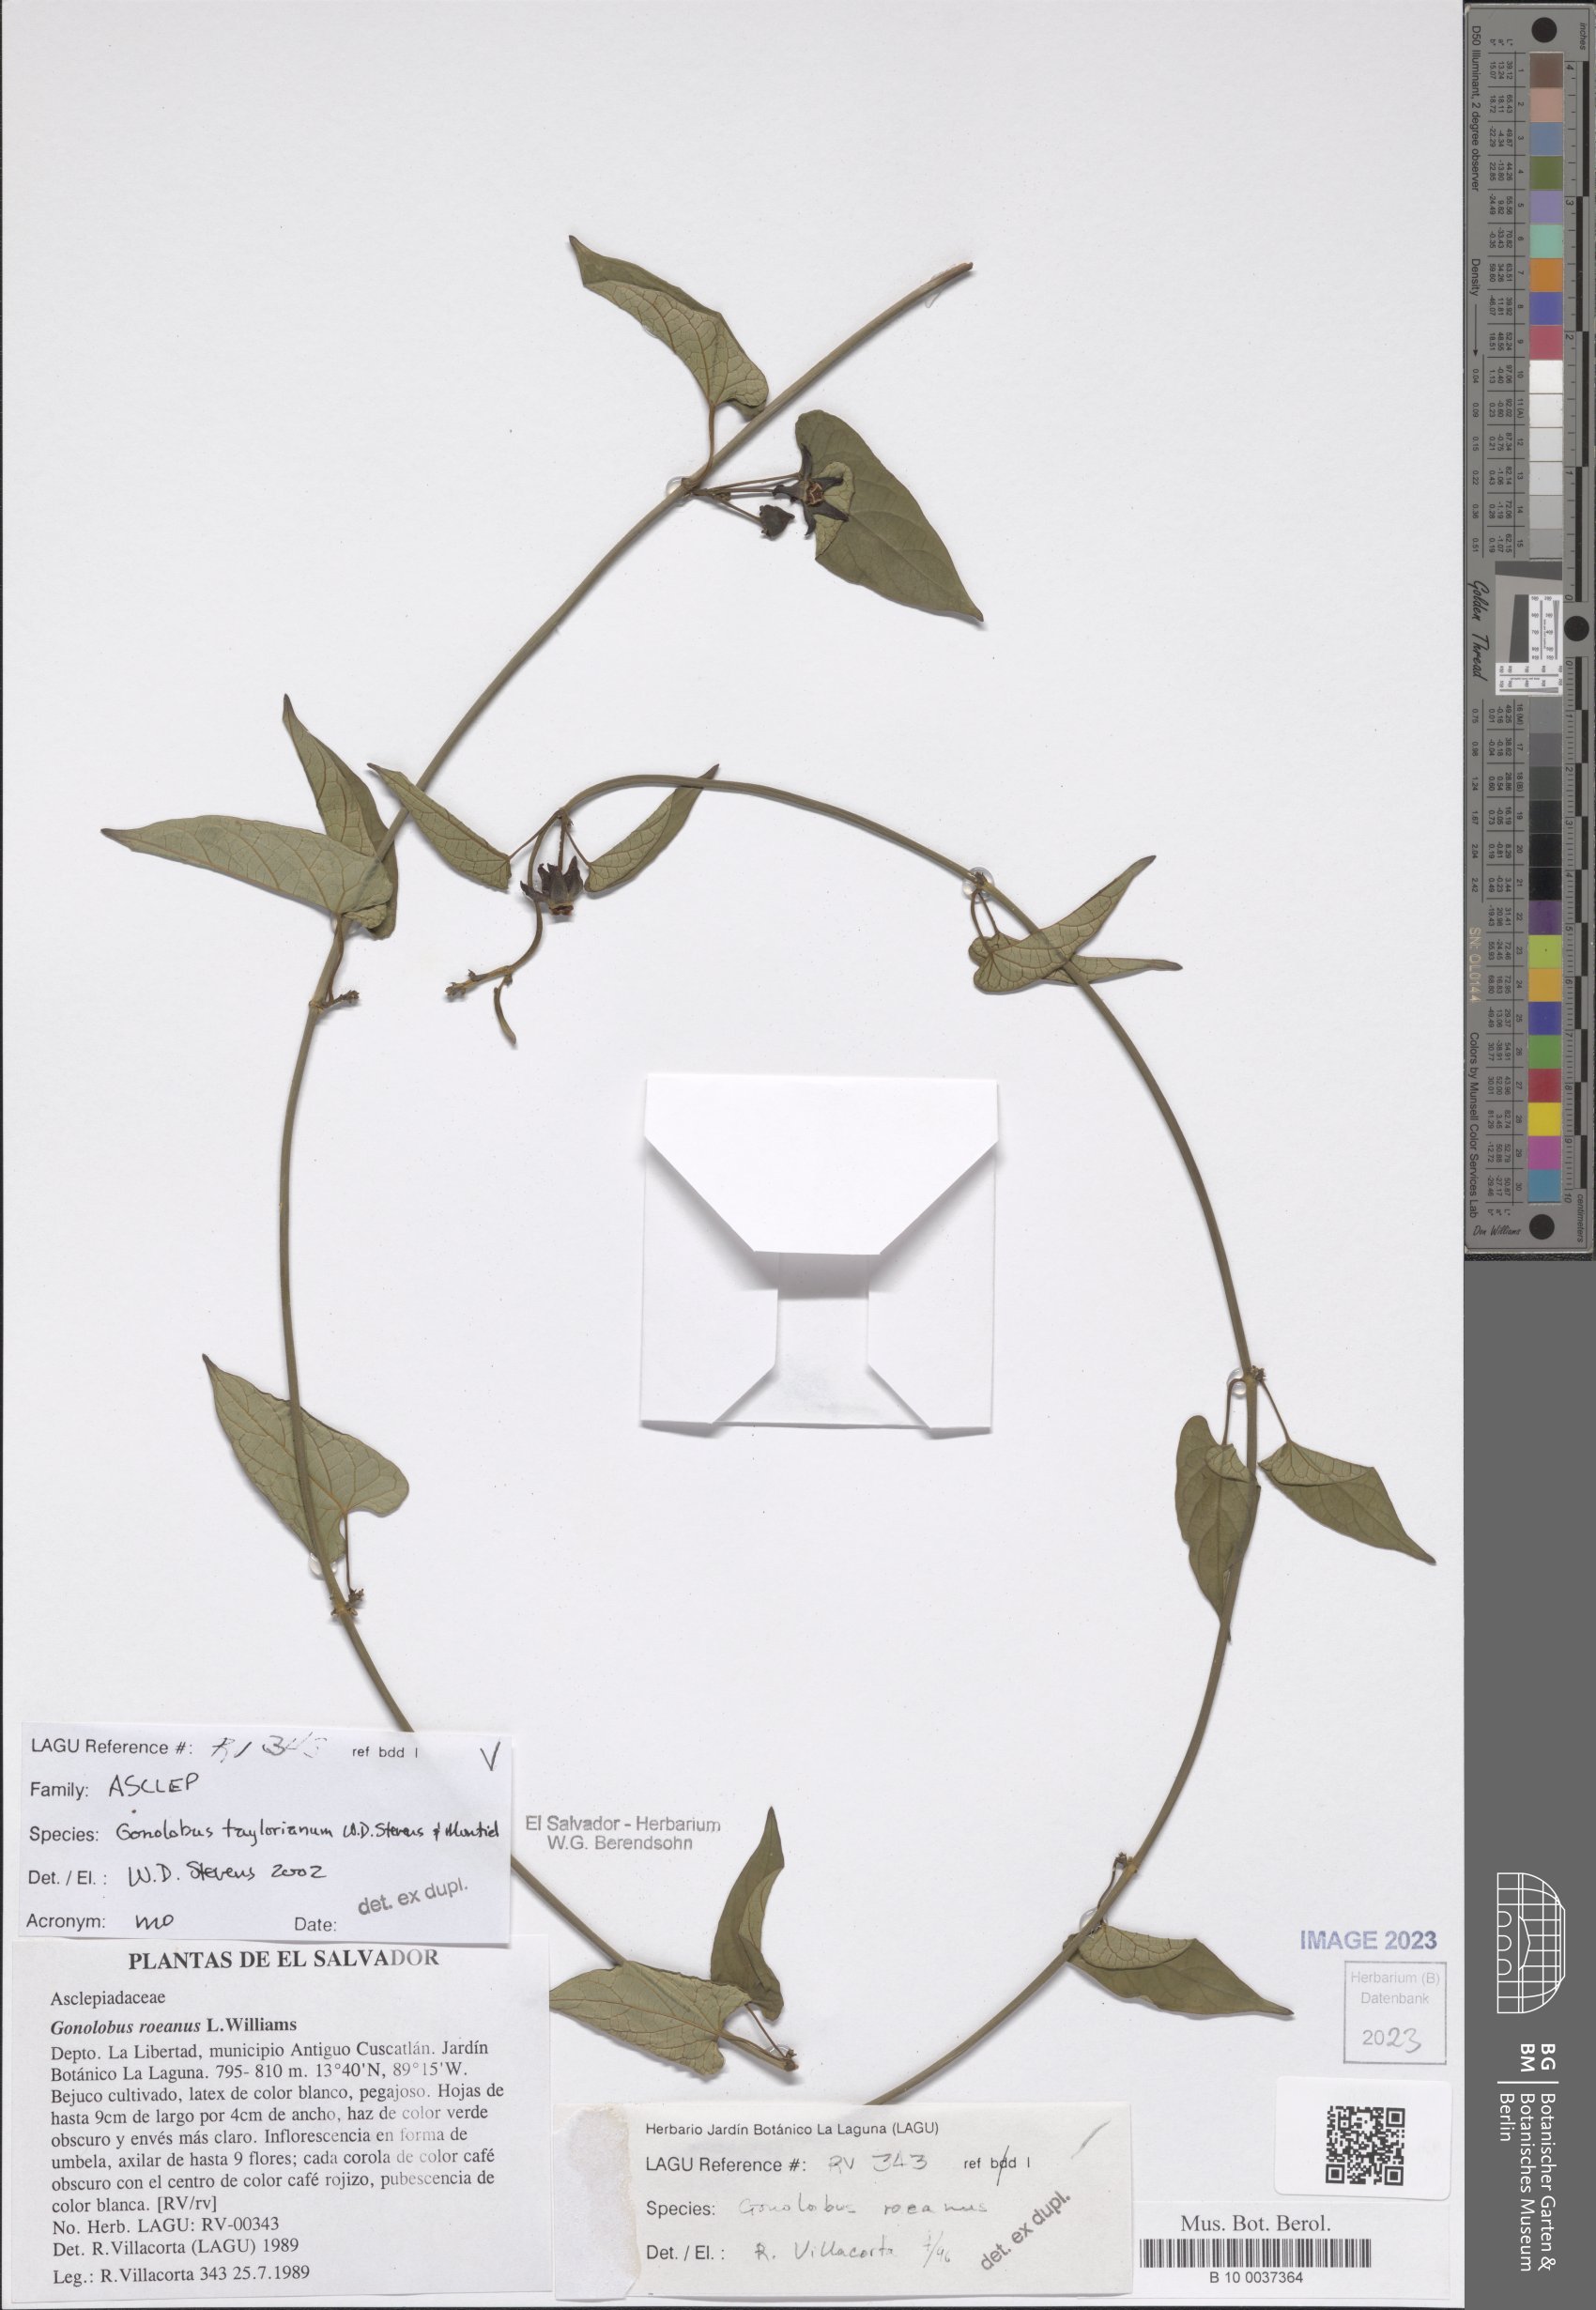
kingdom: Plantae
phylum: Tracheophyta
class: Magnoliopsida
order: Gentianales
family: Apocynaceae
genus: Gonolobus
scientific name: Gonolobus taylorianus
